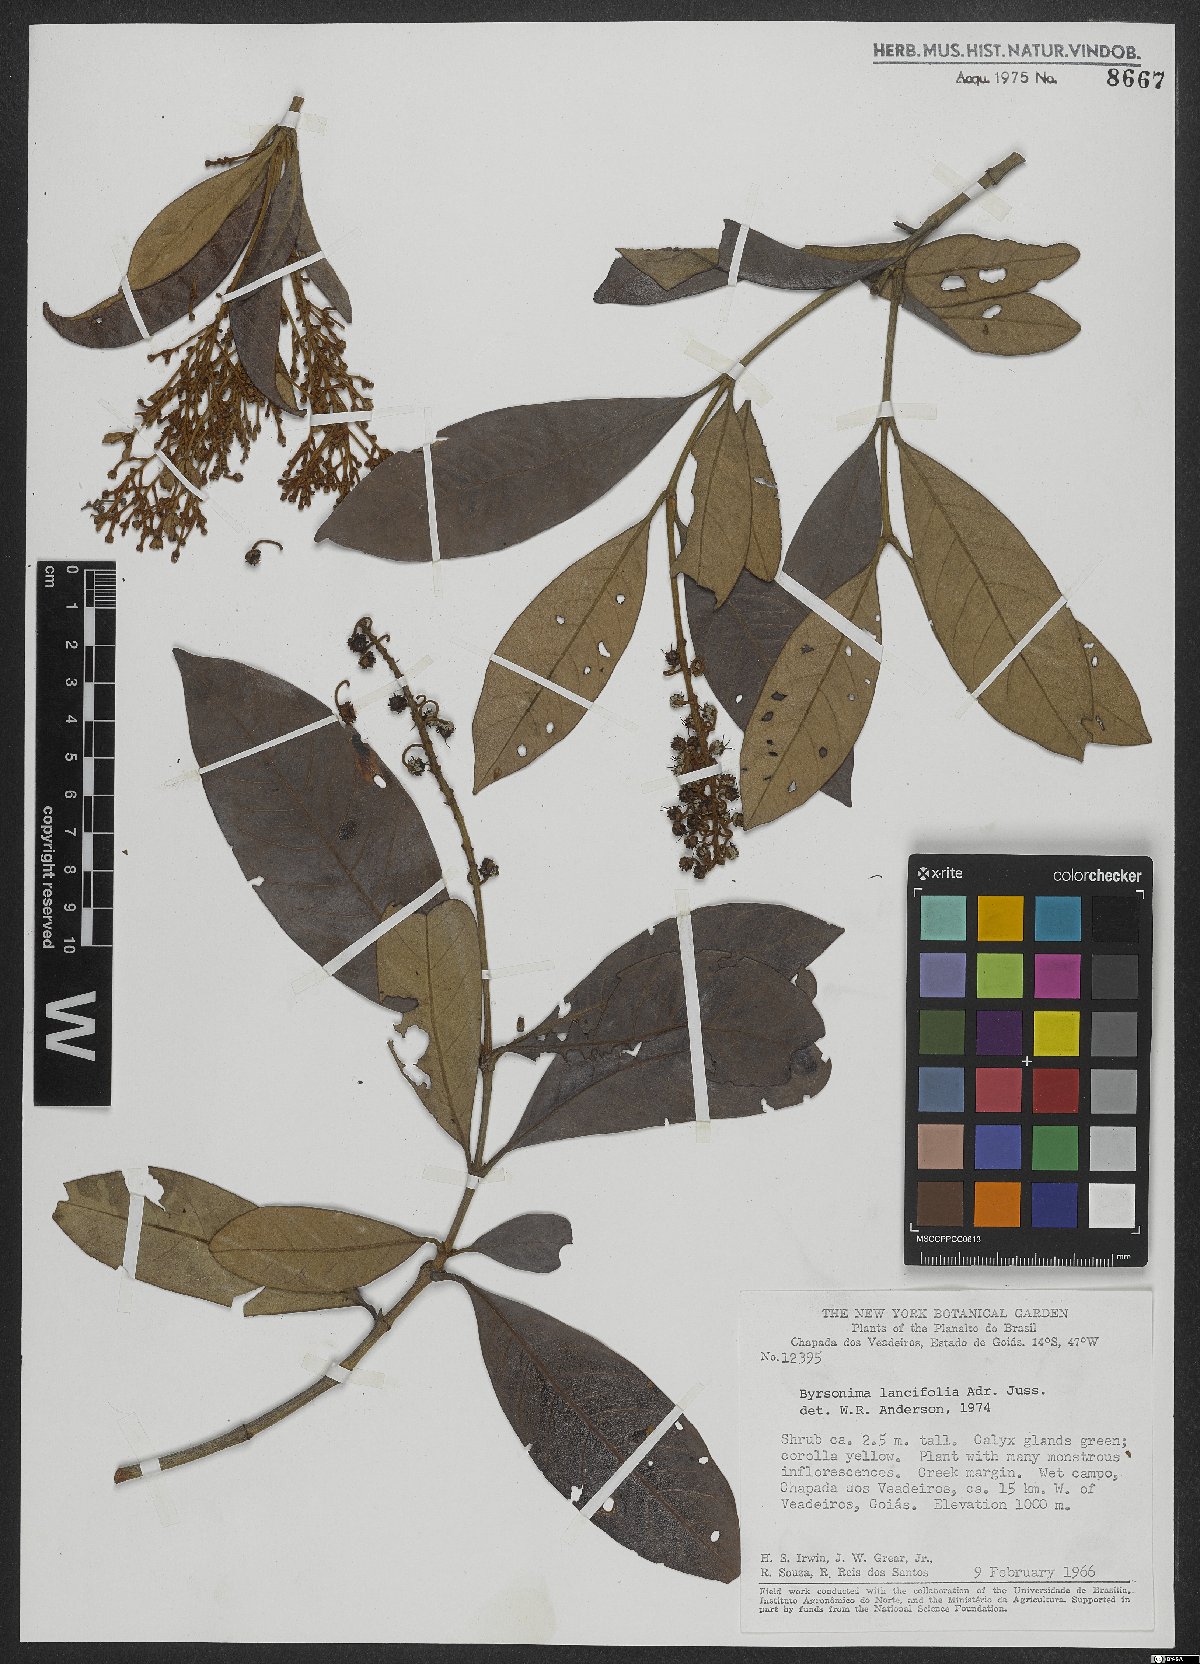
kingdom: Plantae
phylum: Tracheophyta
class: Magnoliopsida
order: Malpighiales
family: Malpighiaceae
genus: Byrsonima
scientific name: Byrsonima lancifolia
